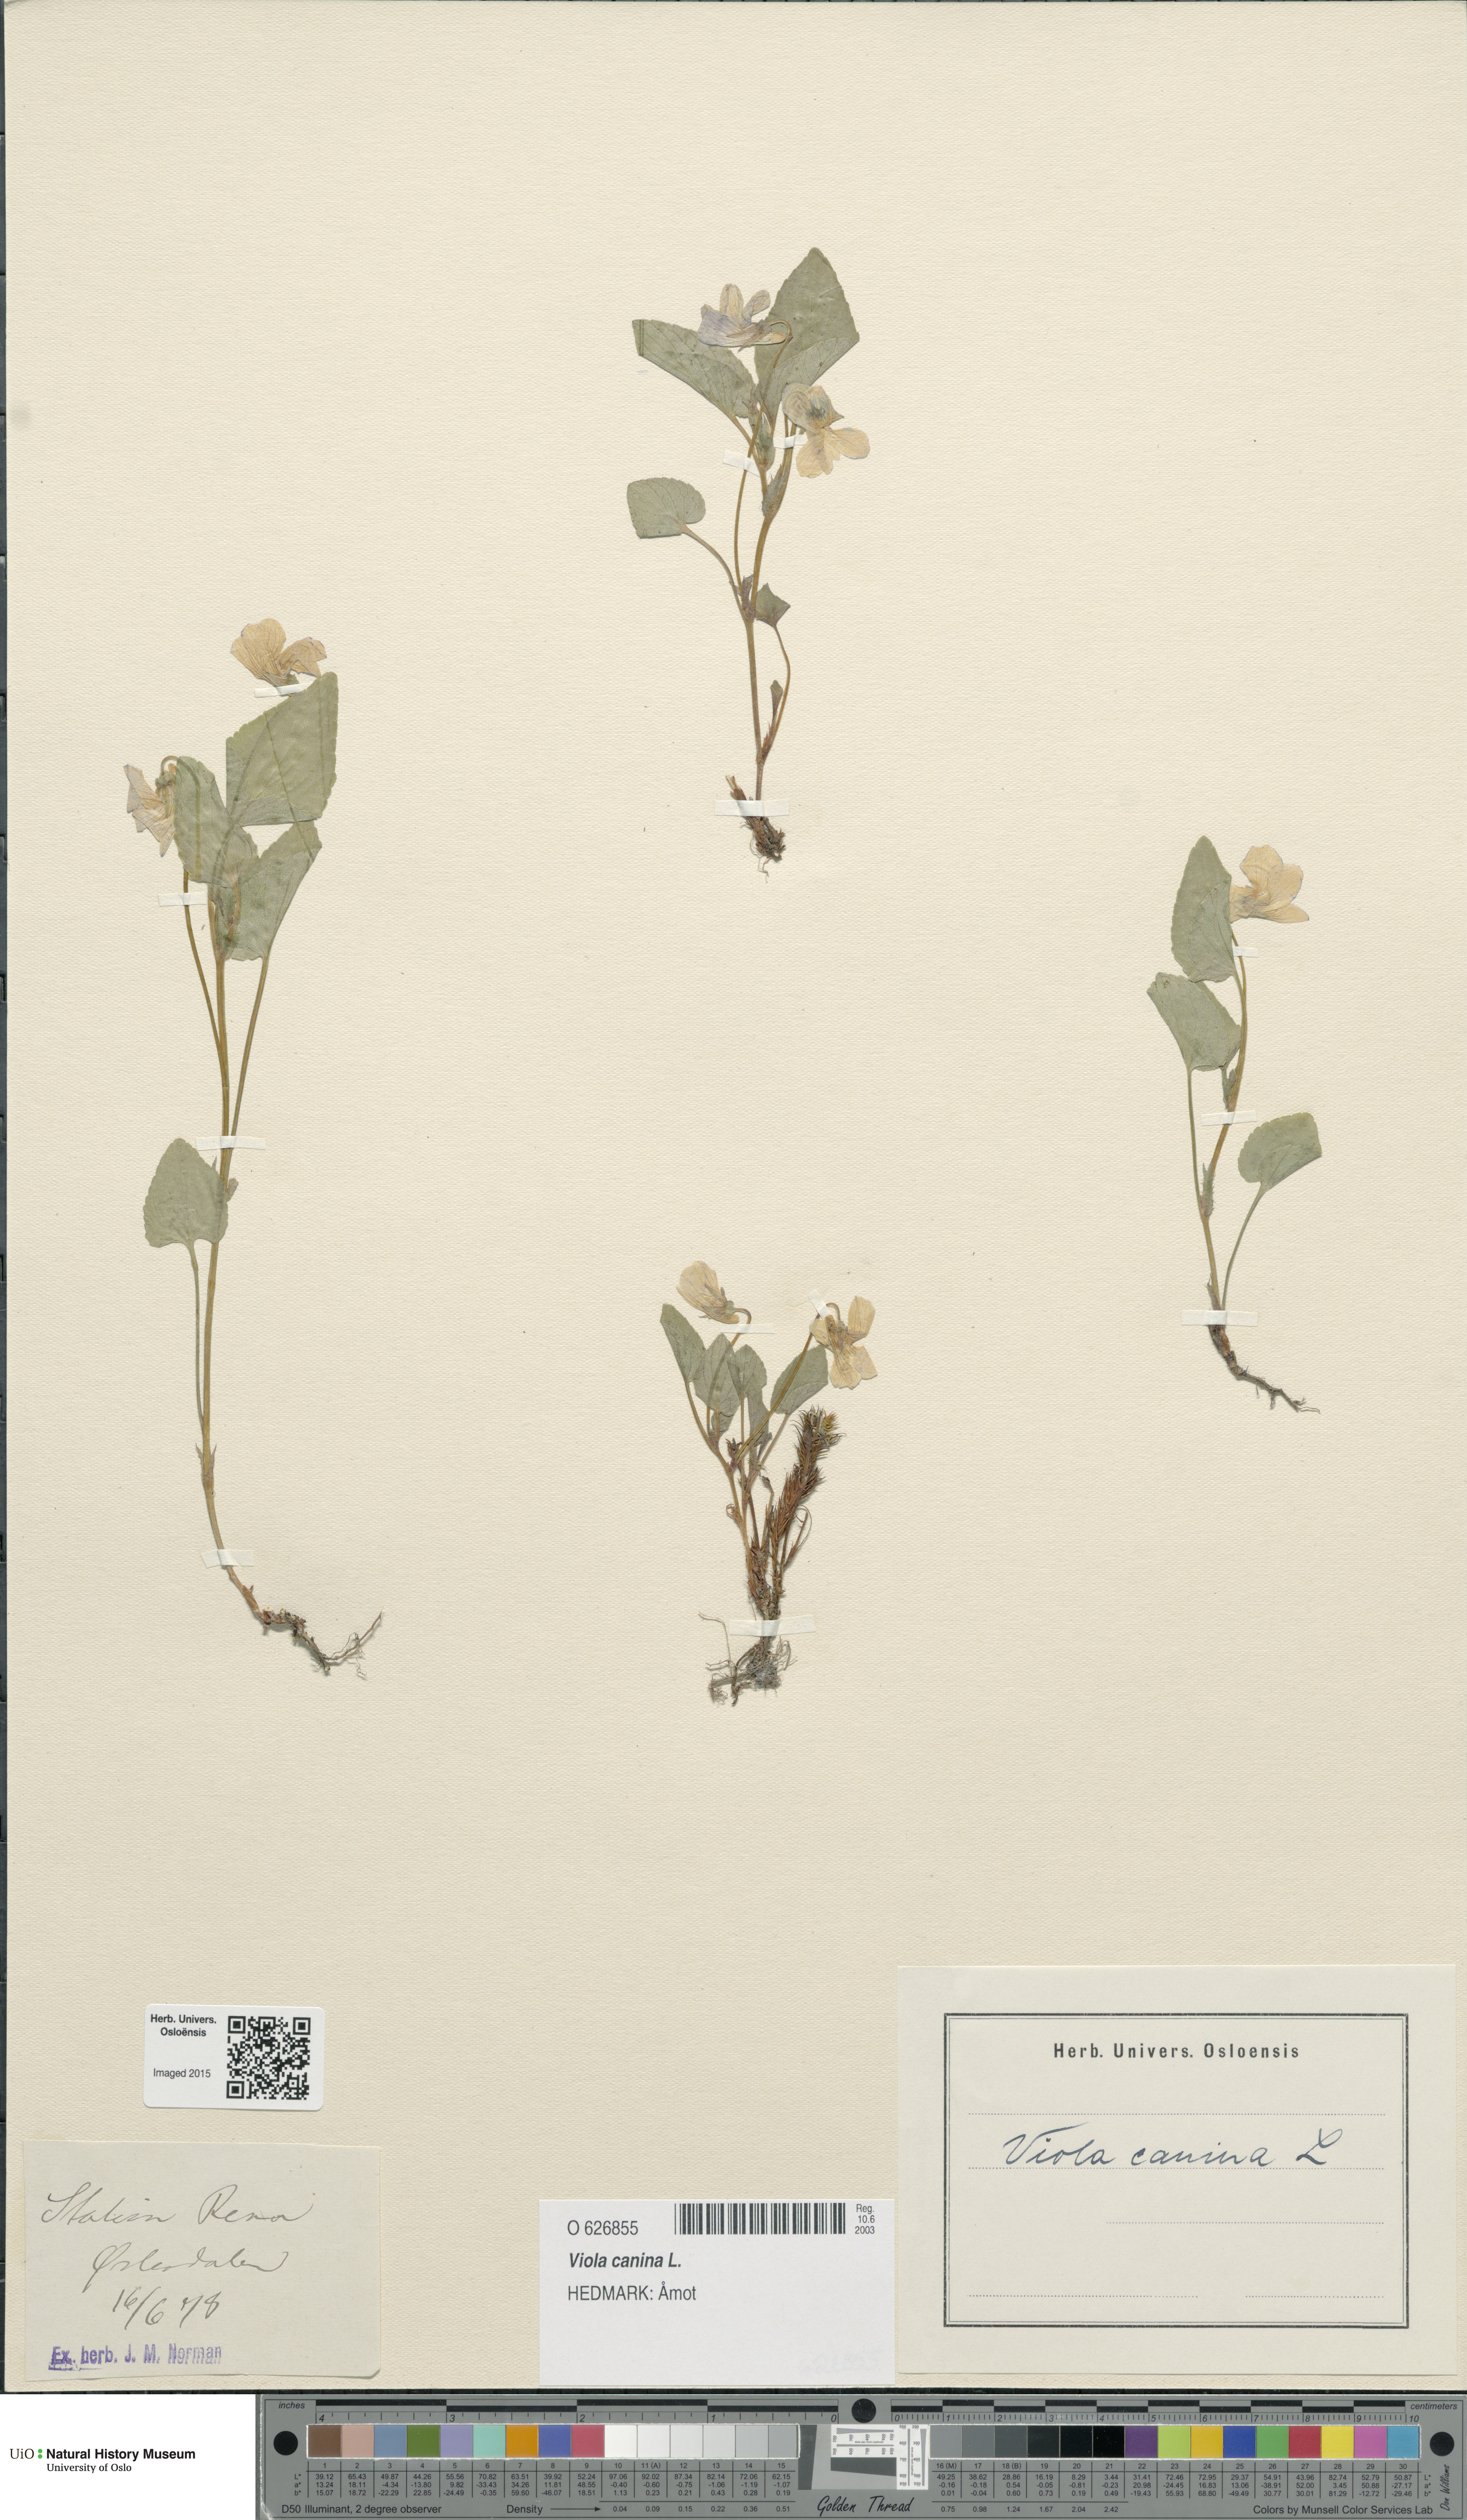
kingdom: Plantae
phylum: Tracheophyta
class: Magnoliopsida
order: Malpighiales
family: Violaceae
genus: Viola
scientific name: Viola canina
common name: Heath dog-violet
